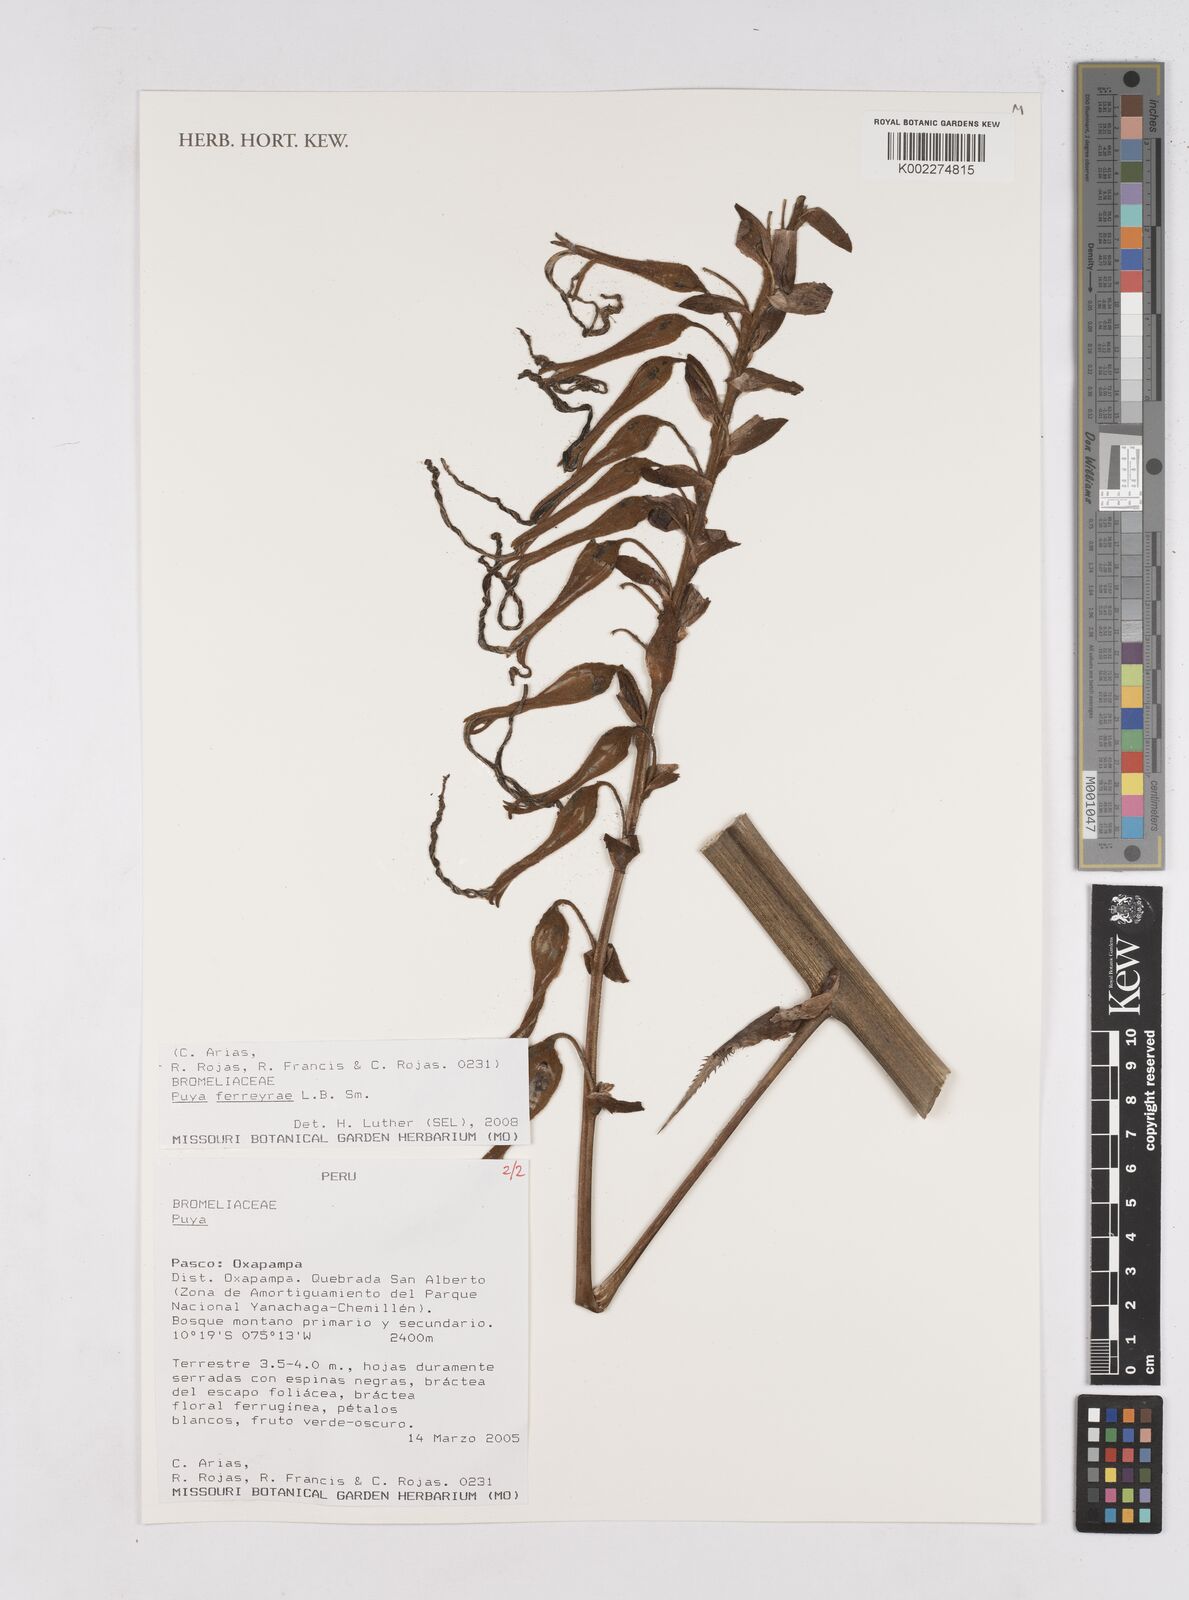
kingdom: Plantae
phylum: Tracheophyta
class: Liliopsida
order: Poales
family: Bromeliaceae
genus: Puya
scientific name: Puya ferreyrae
